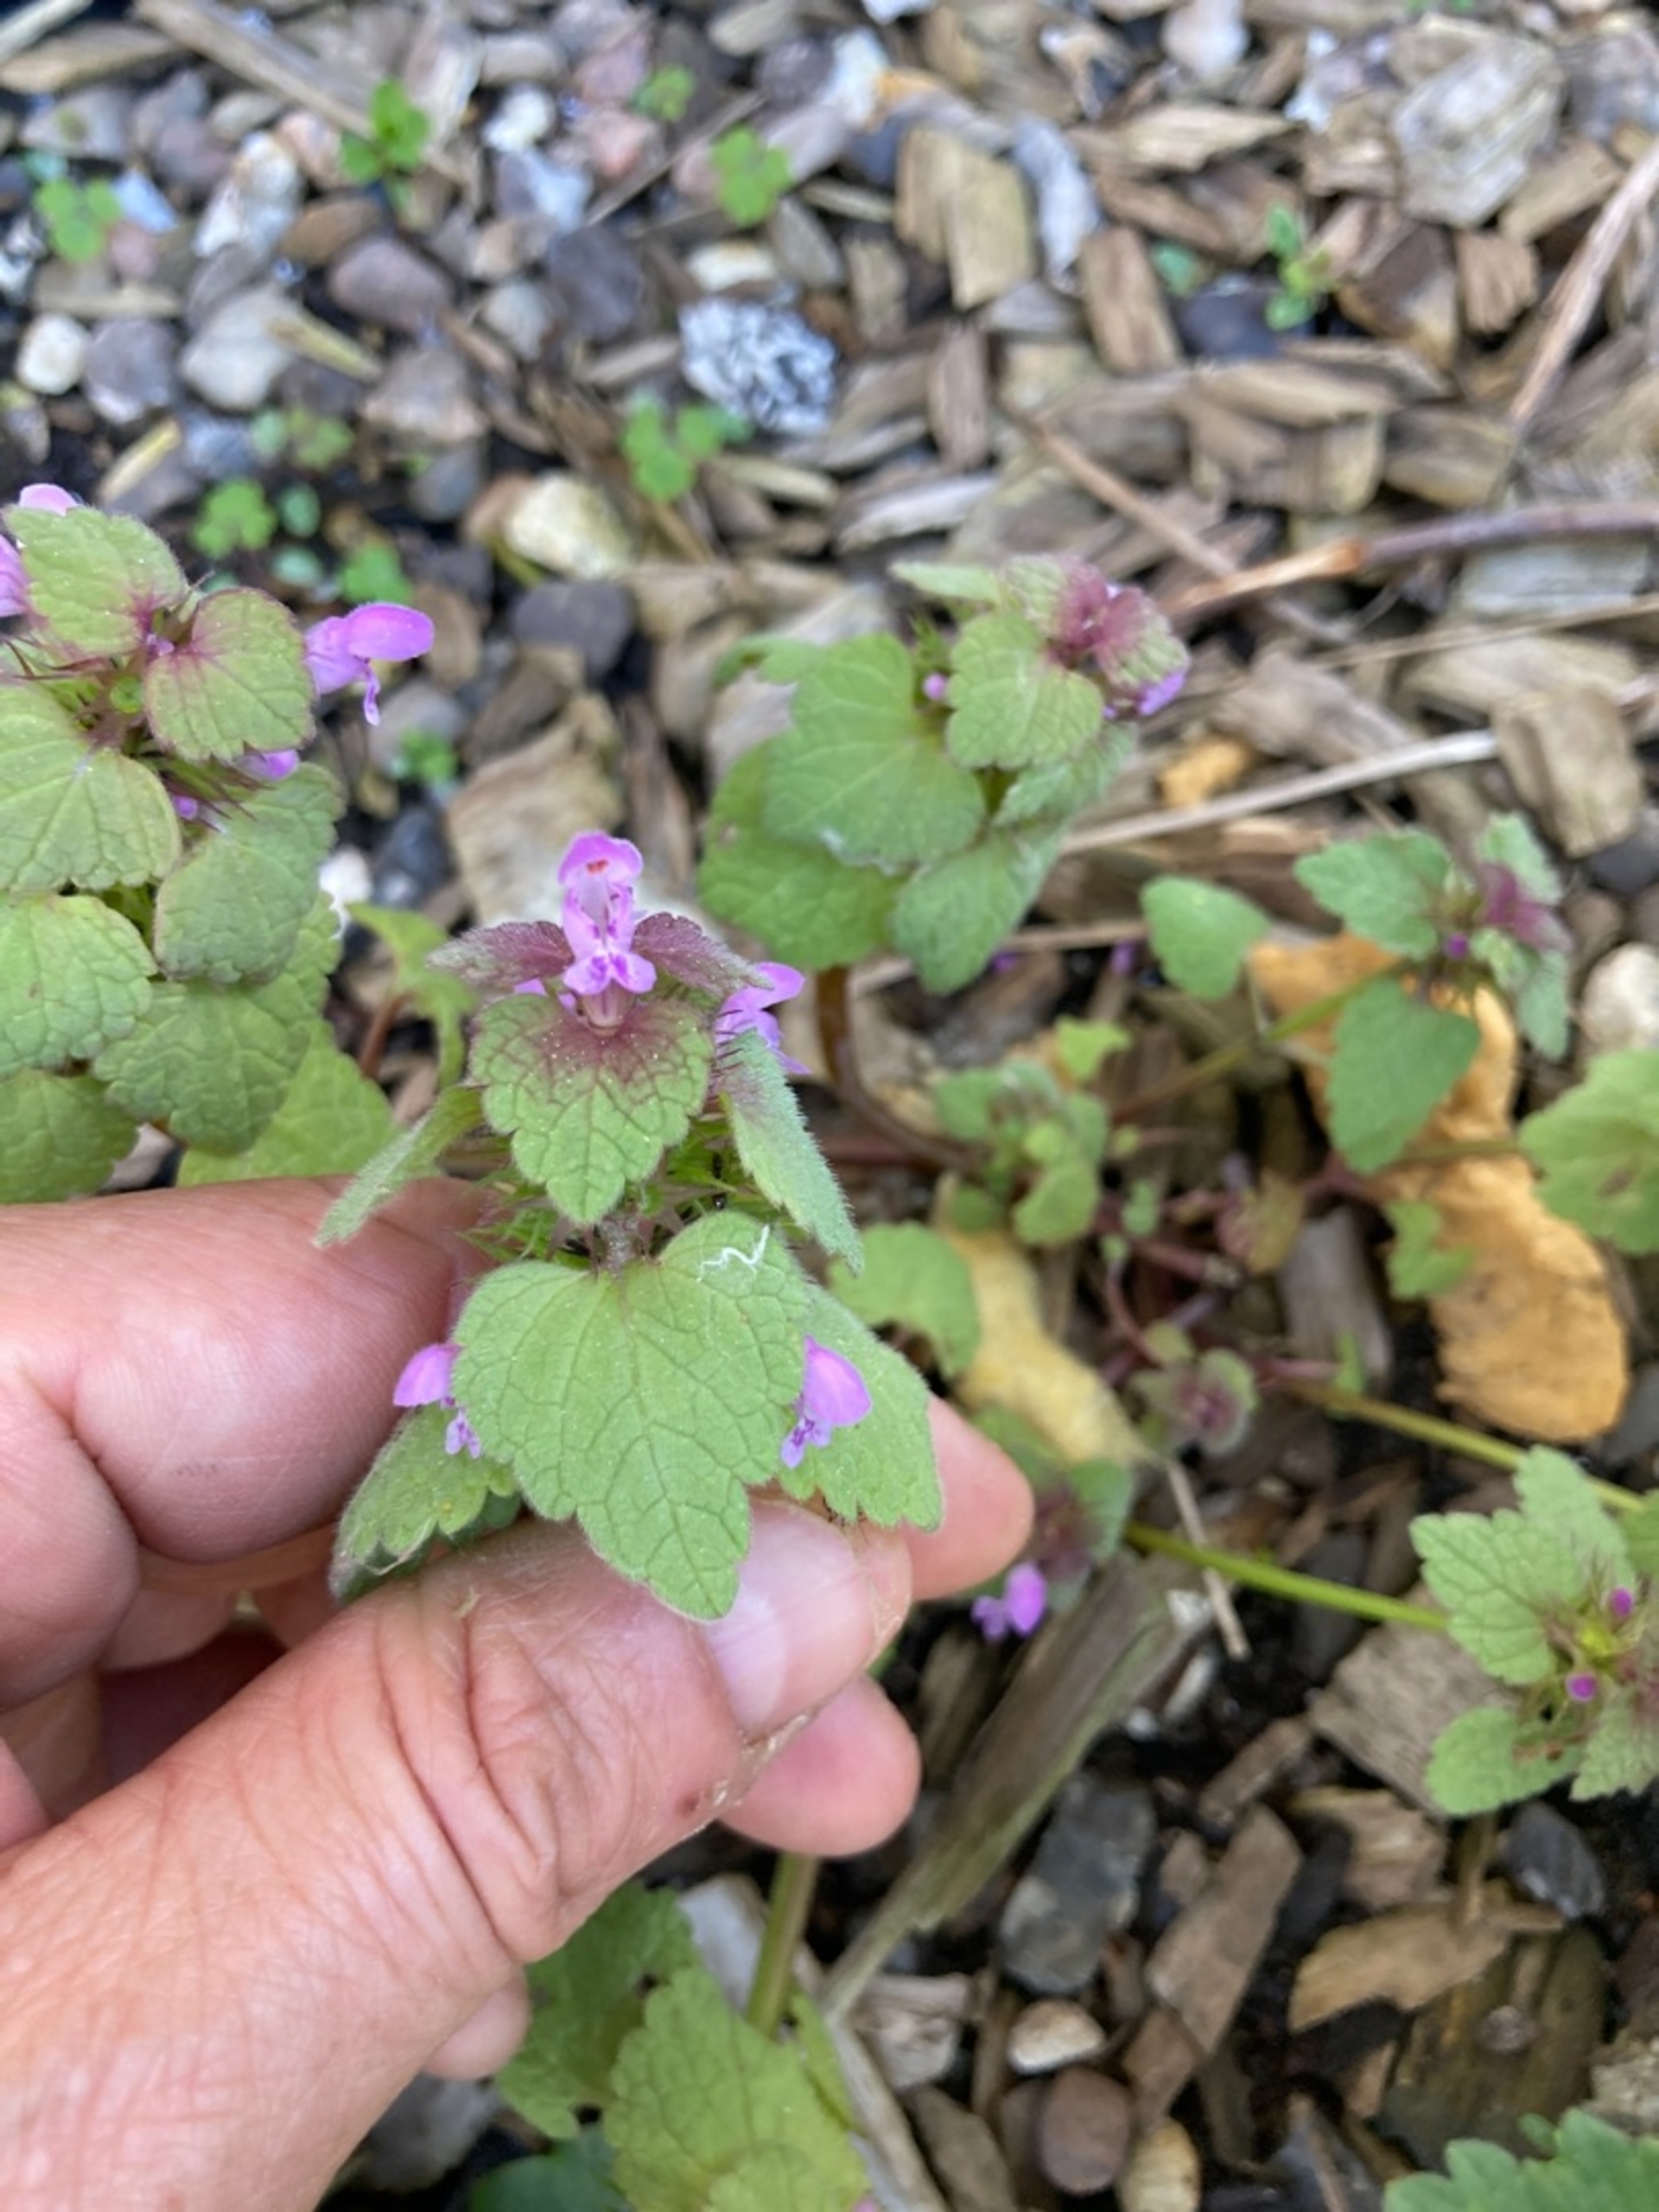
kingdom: Plantae
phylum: Tracheophyta
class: Magnoliopsida
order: Lamiales
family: Lamiaceae
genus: Lamium
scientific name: Lamium purpureum
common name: Rød tvetand
